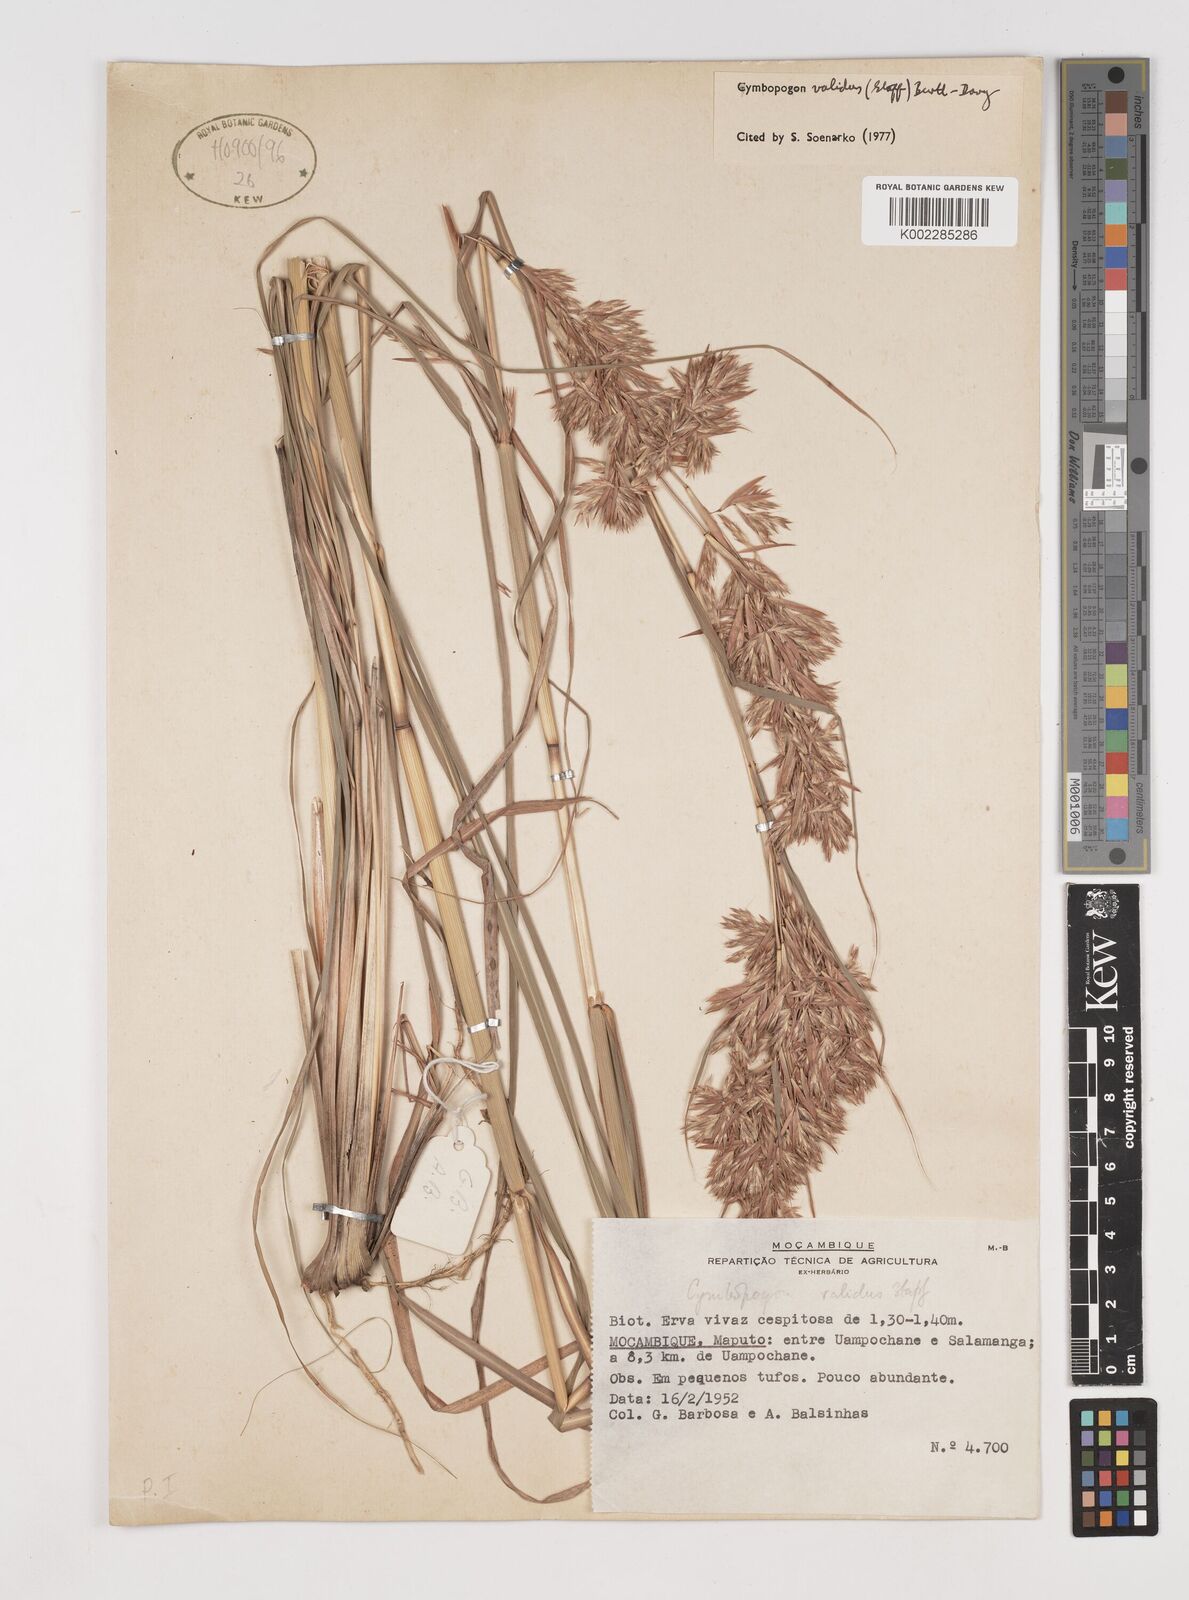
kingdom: Plantae
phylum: Tracheophyta
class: Liliopsida
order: Poales
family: Poaceae
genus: Cymbopogon
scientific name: Cymbopogon nardus
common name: Giant turpentine grass
